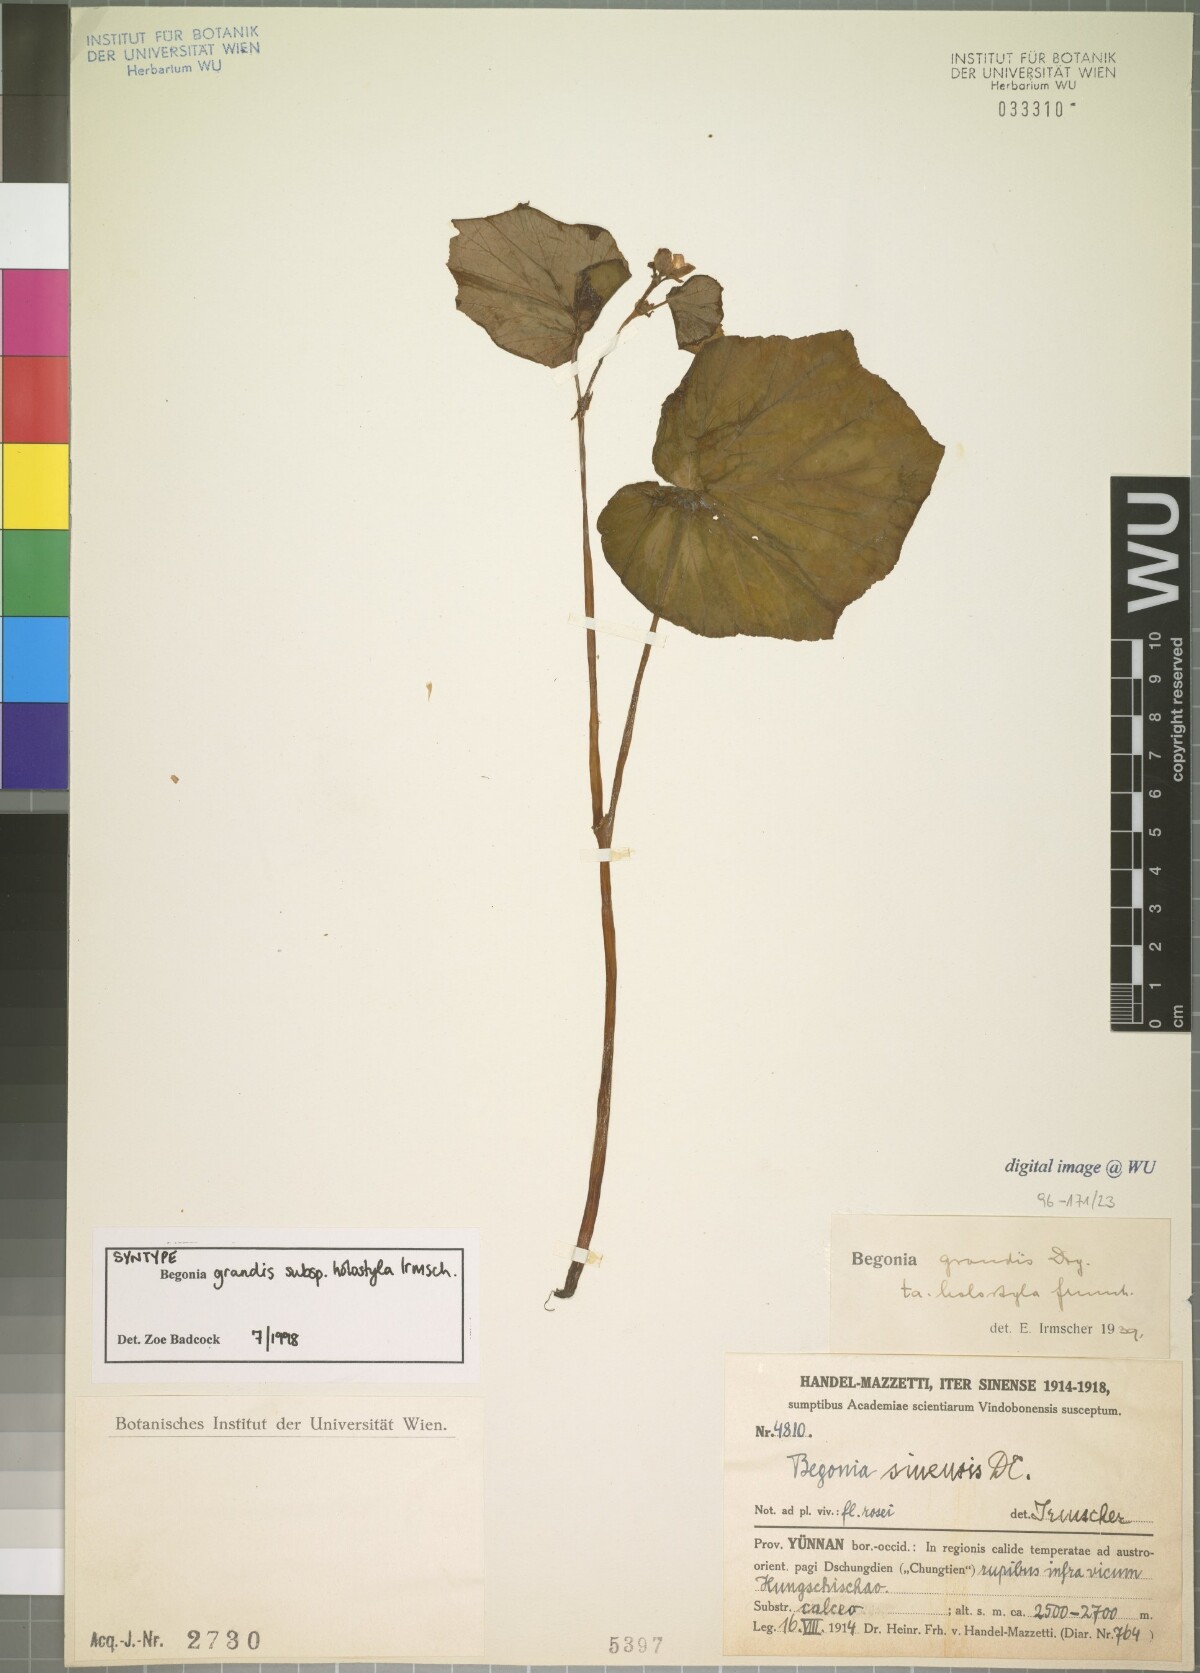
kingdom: Plantae
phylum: Tracheophyta
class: Magnoliopsida
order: Cucurbitales
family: Begoniaceae
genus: Begonia
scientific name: Begonia grandis
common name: Hardy begonia
